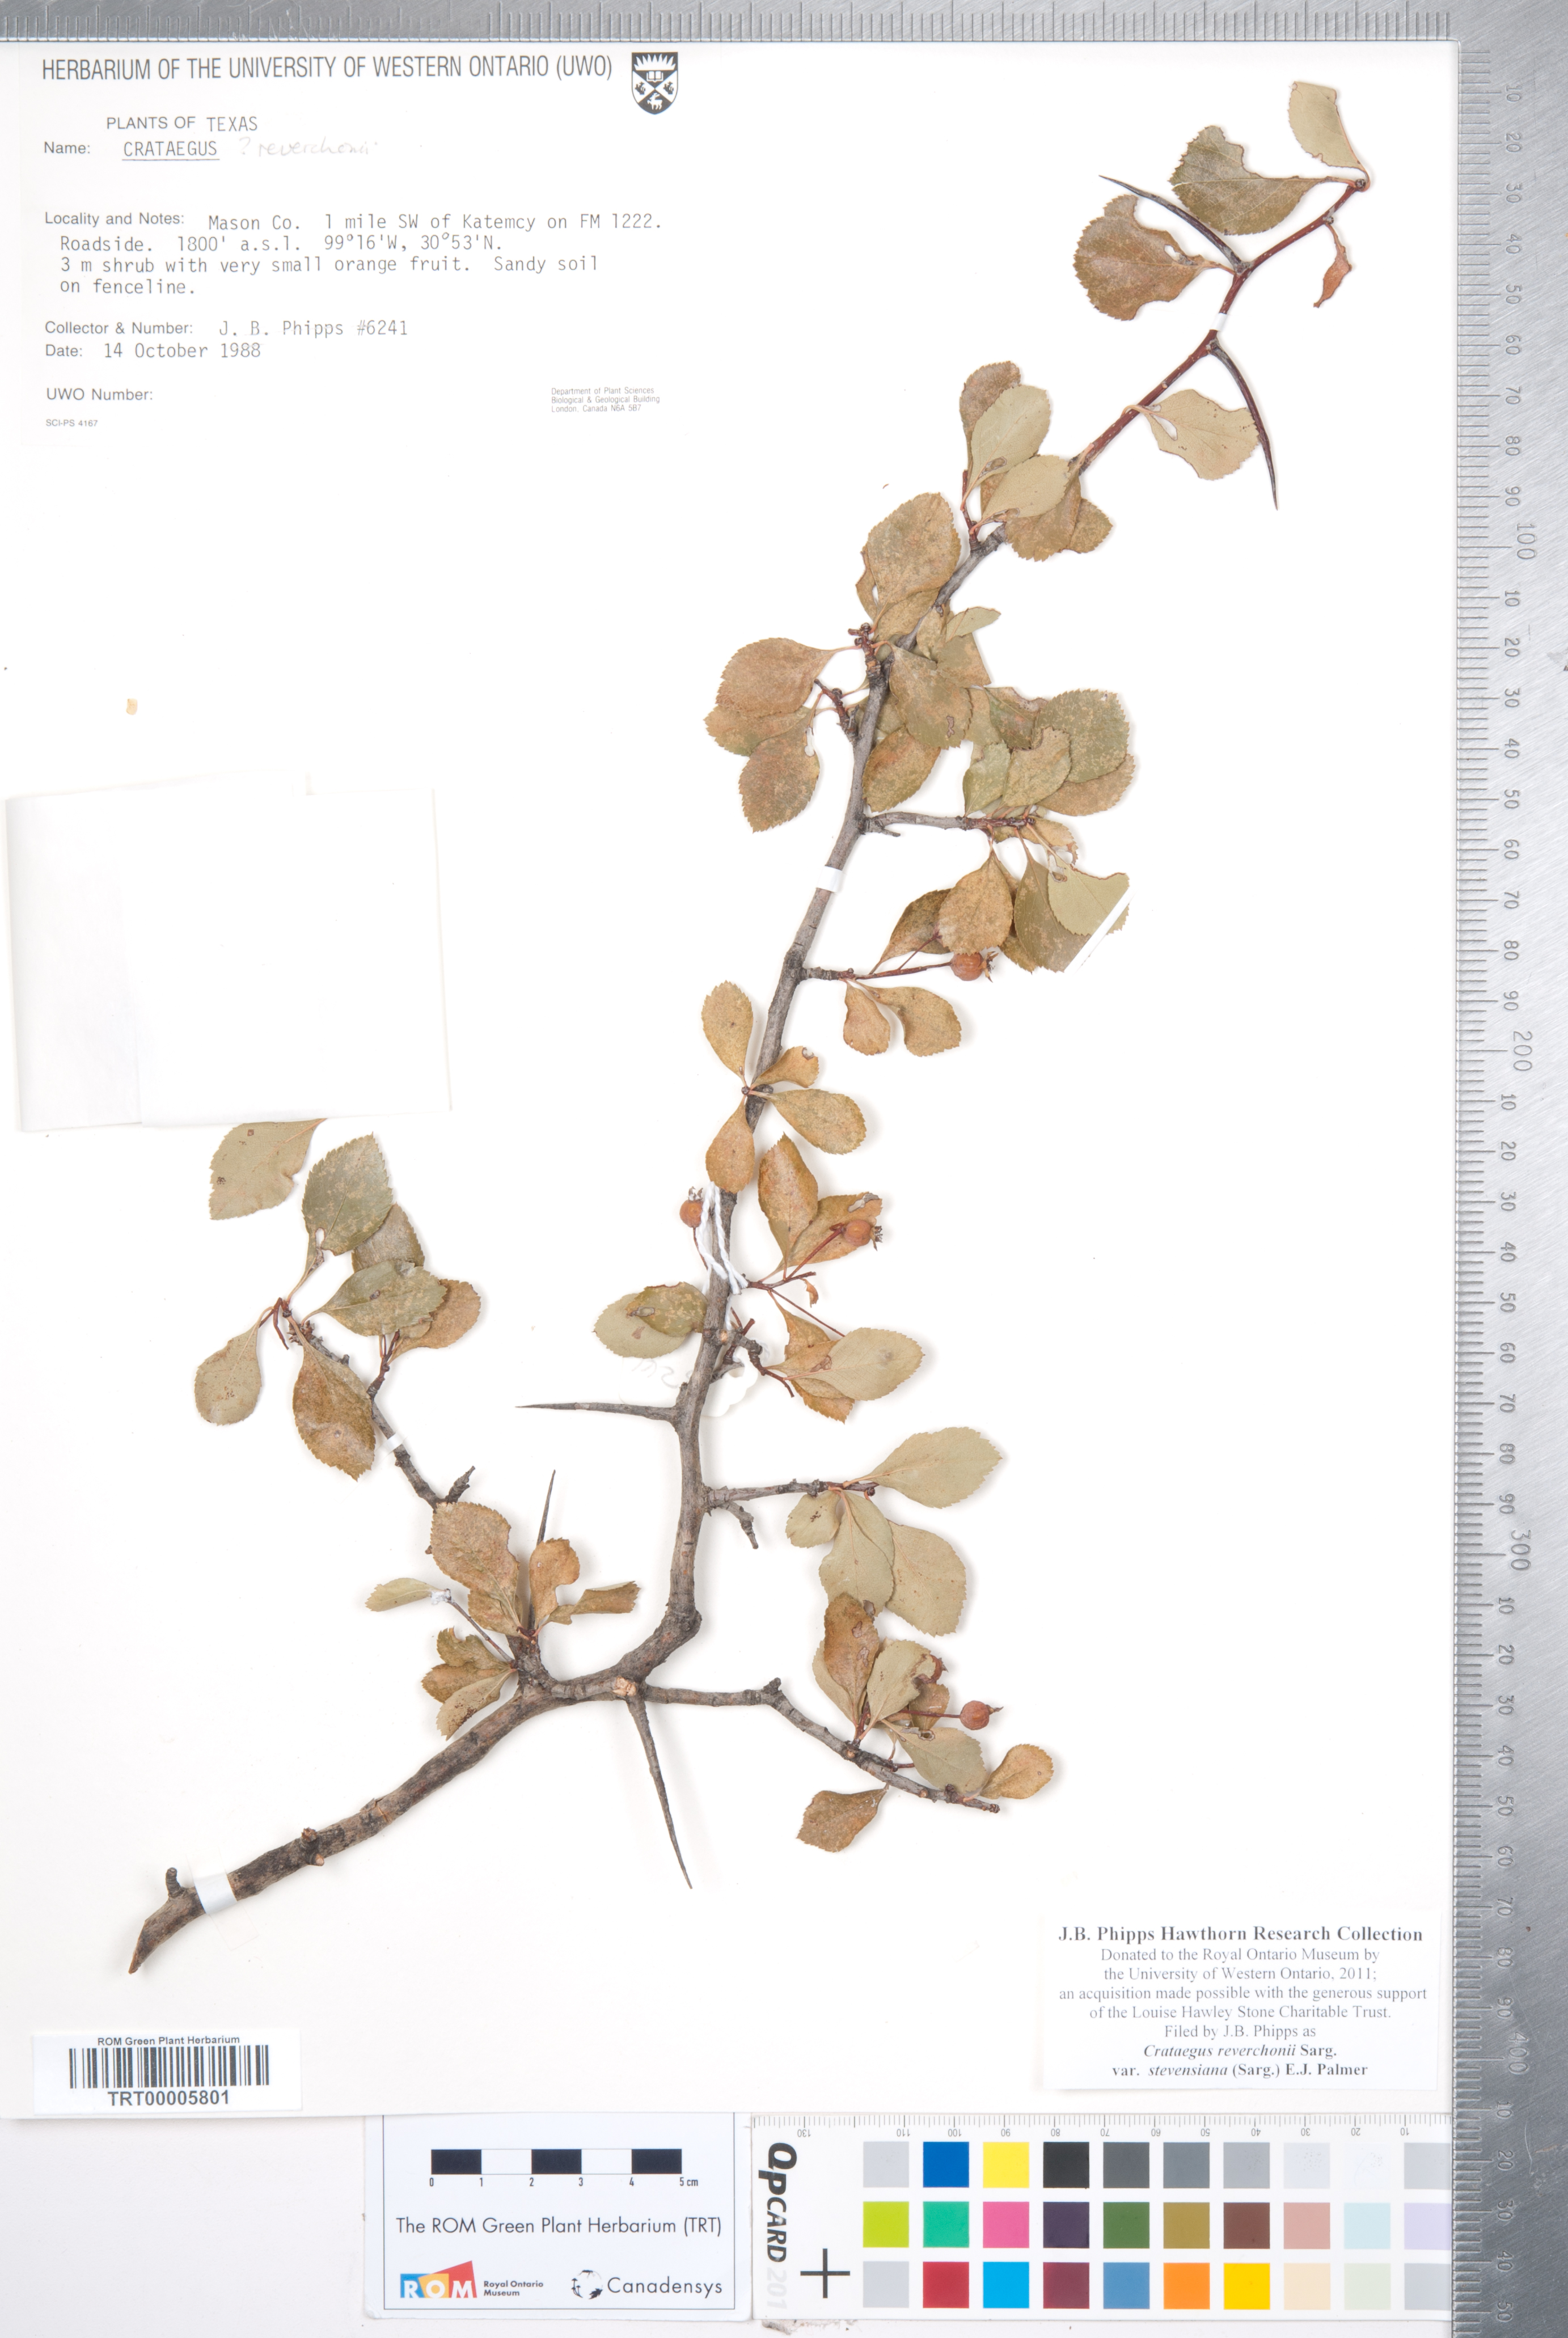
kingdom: Plantae
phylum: Tracheophyta
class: Magnoliopsida
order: Rosales
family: Rosaceae
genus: Crataegus
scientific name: Crataegus reverchonii
